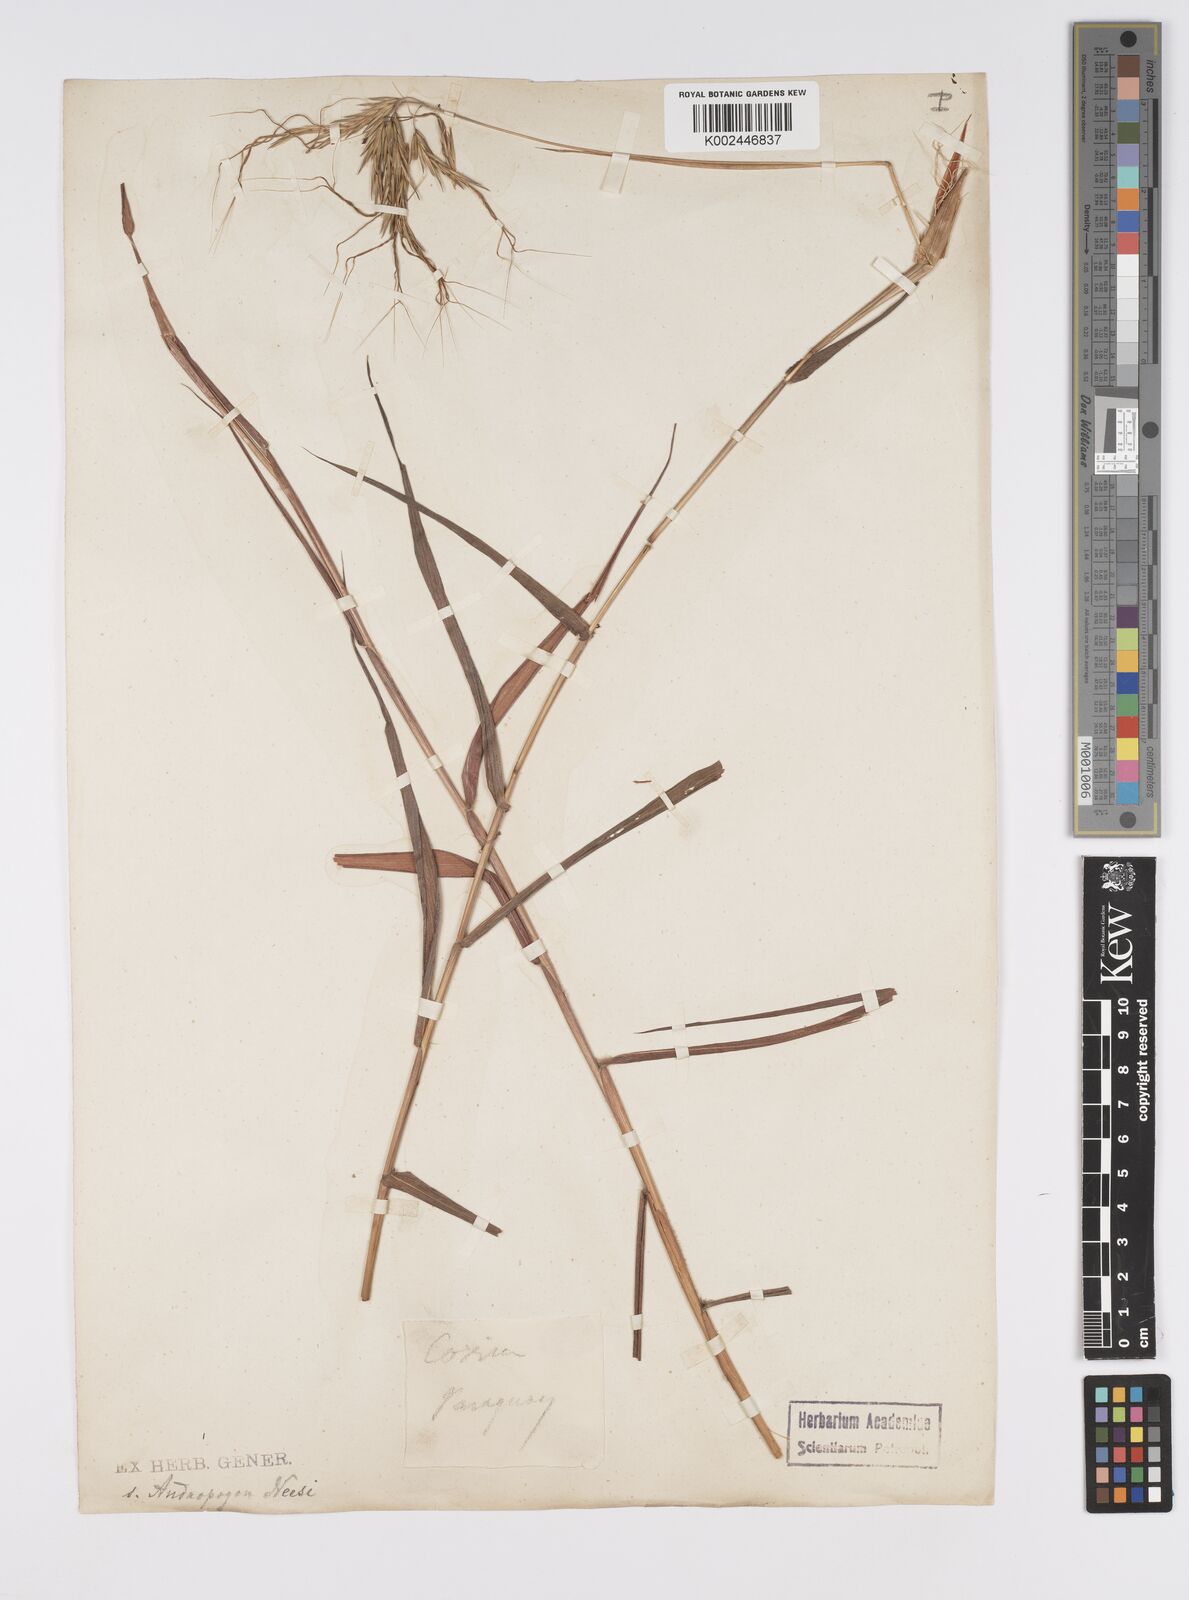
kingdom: Plantae
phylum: Tracheophyta
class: Liliopsida
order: Poales
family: Poaceae
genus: Agenium
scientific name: Agenium villosum
